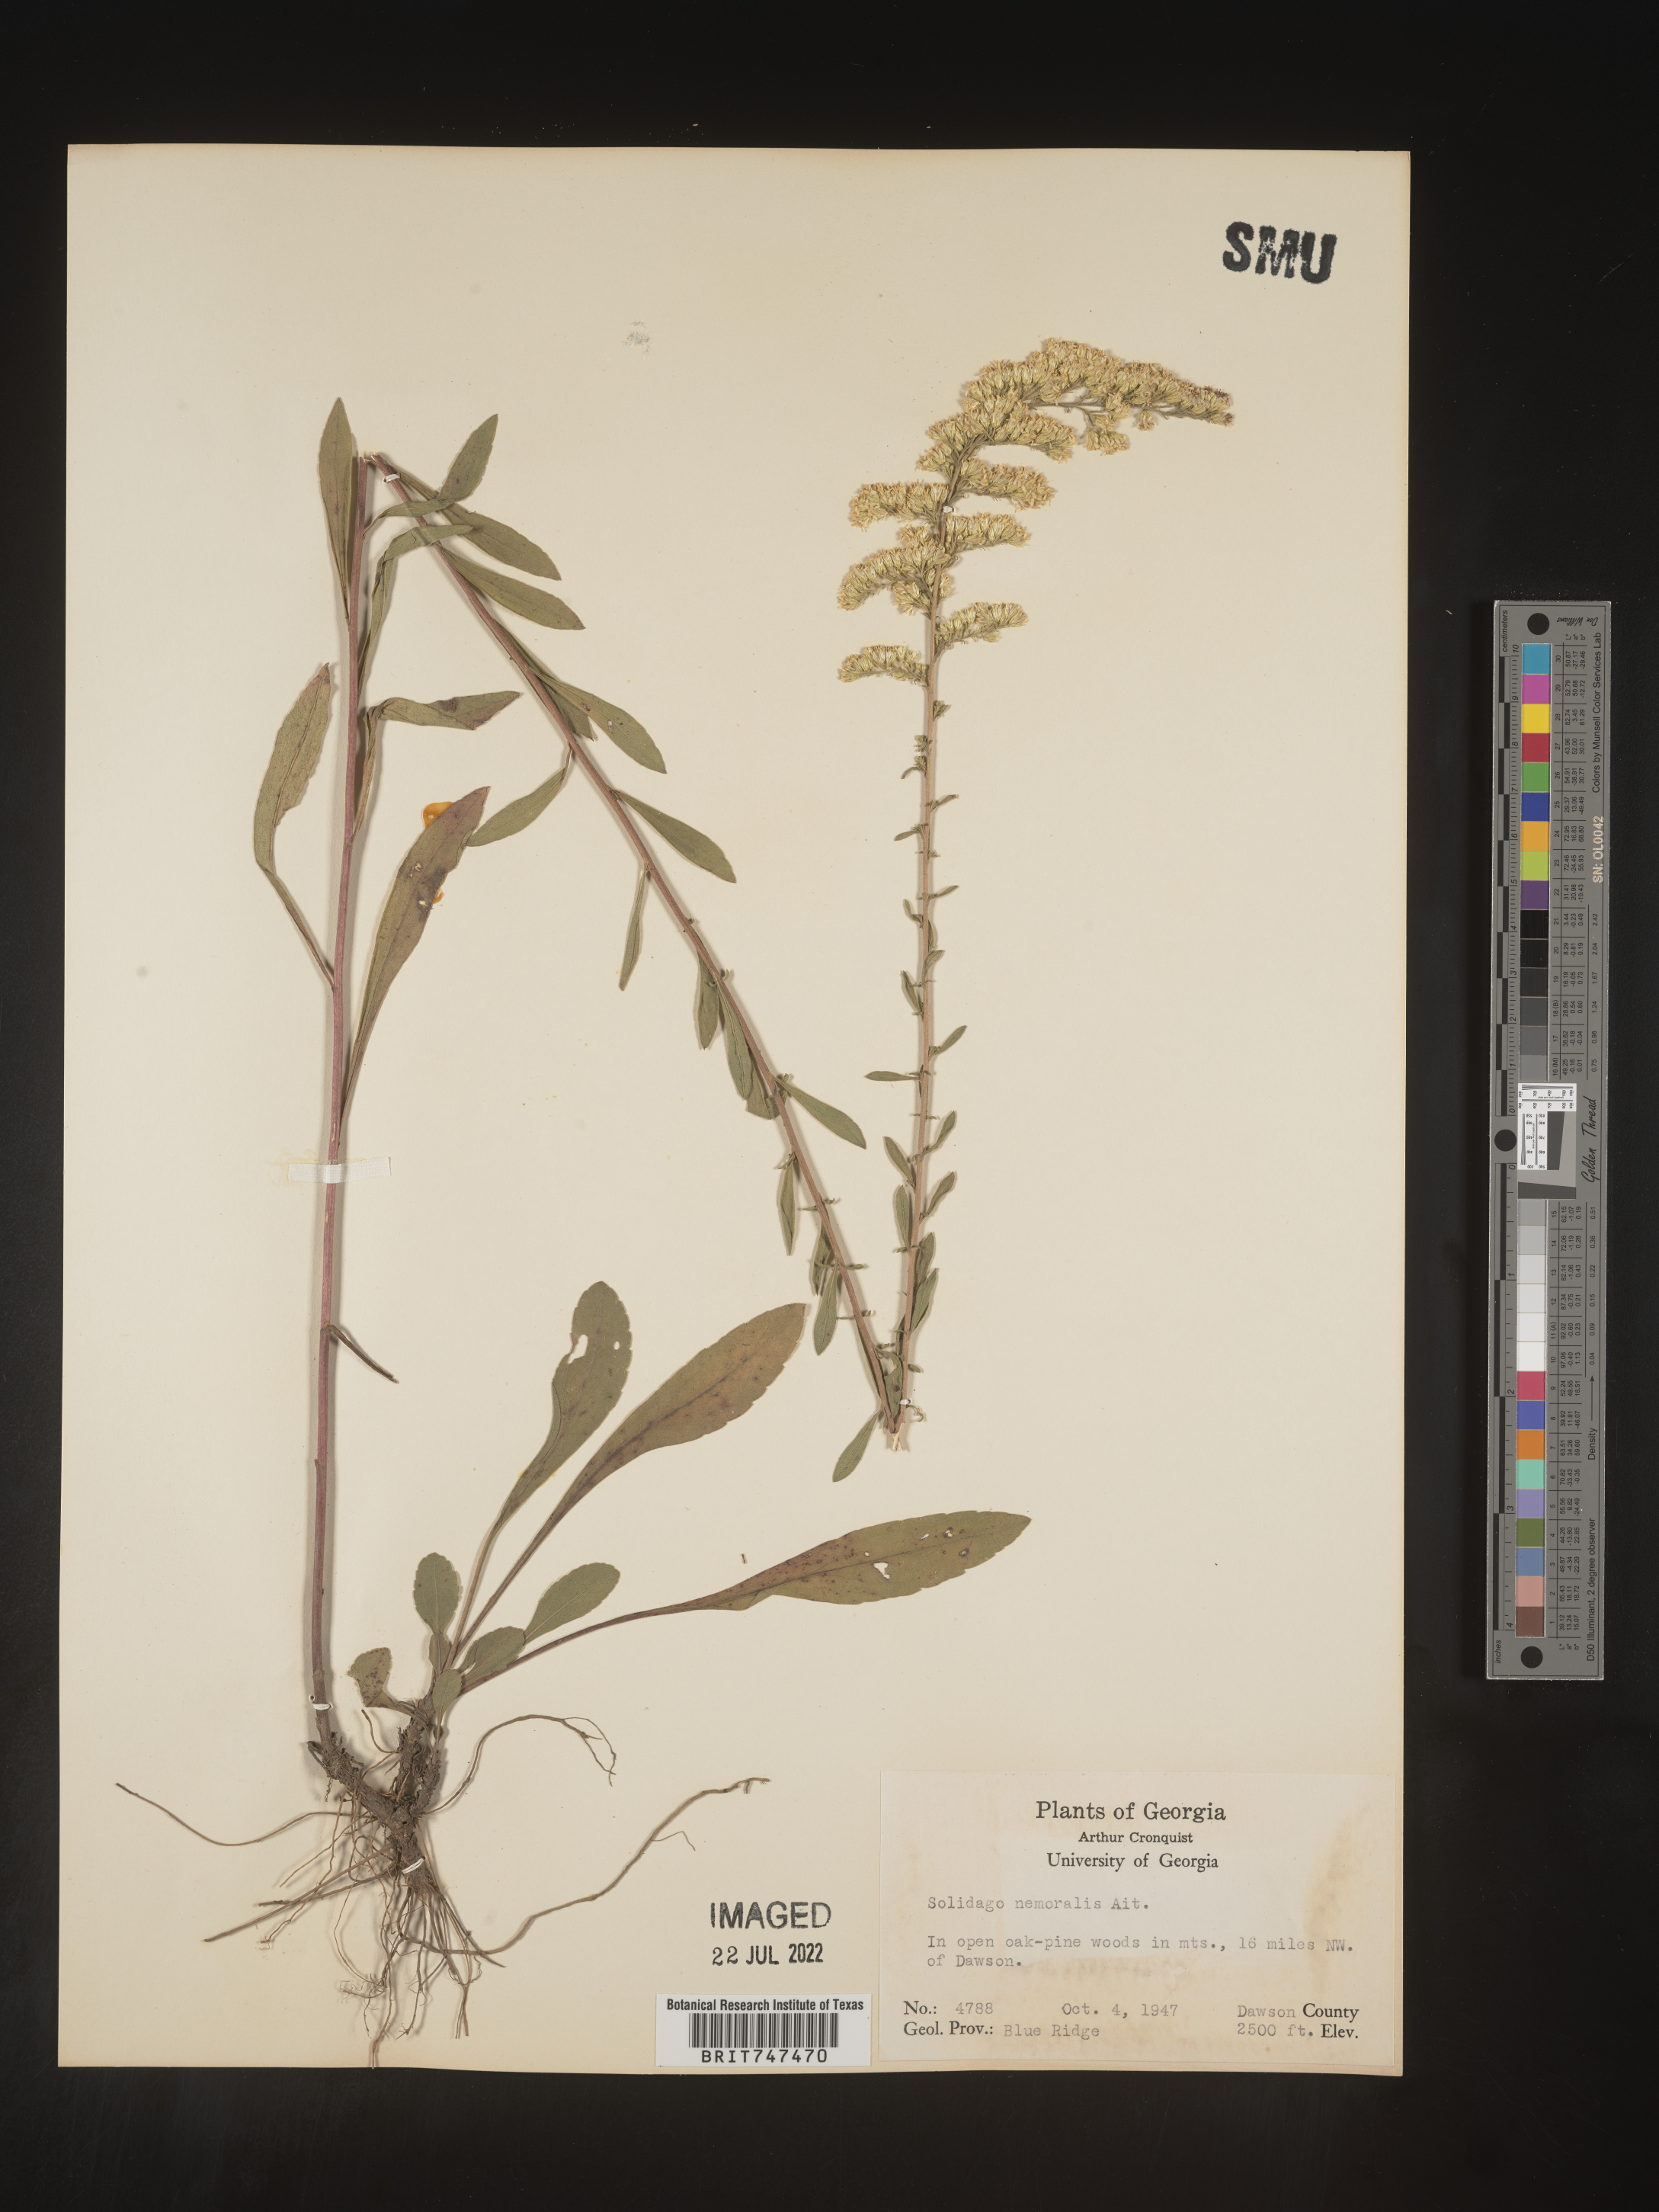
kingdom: Plantae
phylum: Tracheophyta
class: Magnoliopsida
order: Asterales
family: Asteraceae
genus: Solidago
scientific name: Solidago nemoralis
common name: Grey goldenrod
